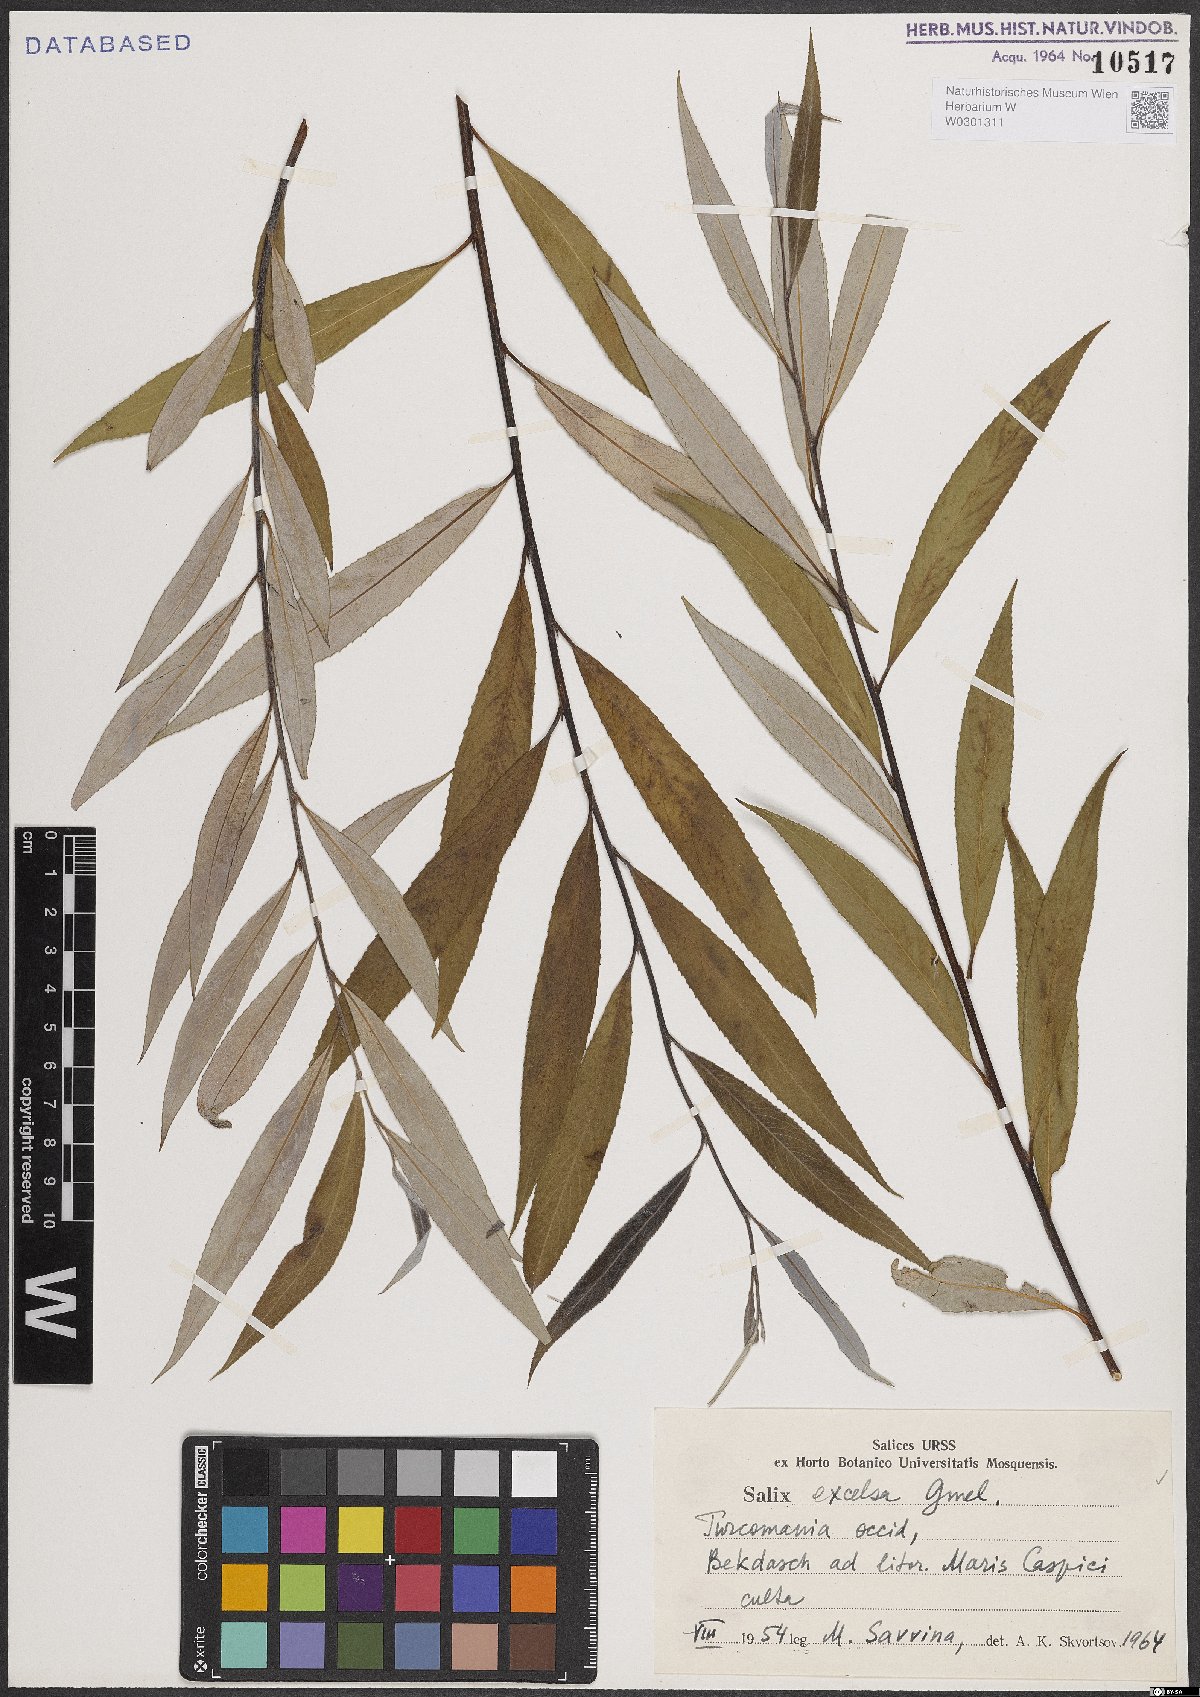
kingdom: Plantae
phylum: Tracheophyta
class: Magnoliopsida
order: Malpighiales
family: Salicaceae
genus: Salix
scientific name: Salix excelsa
